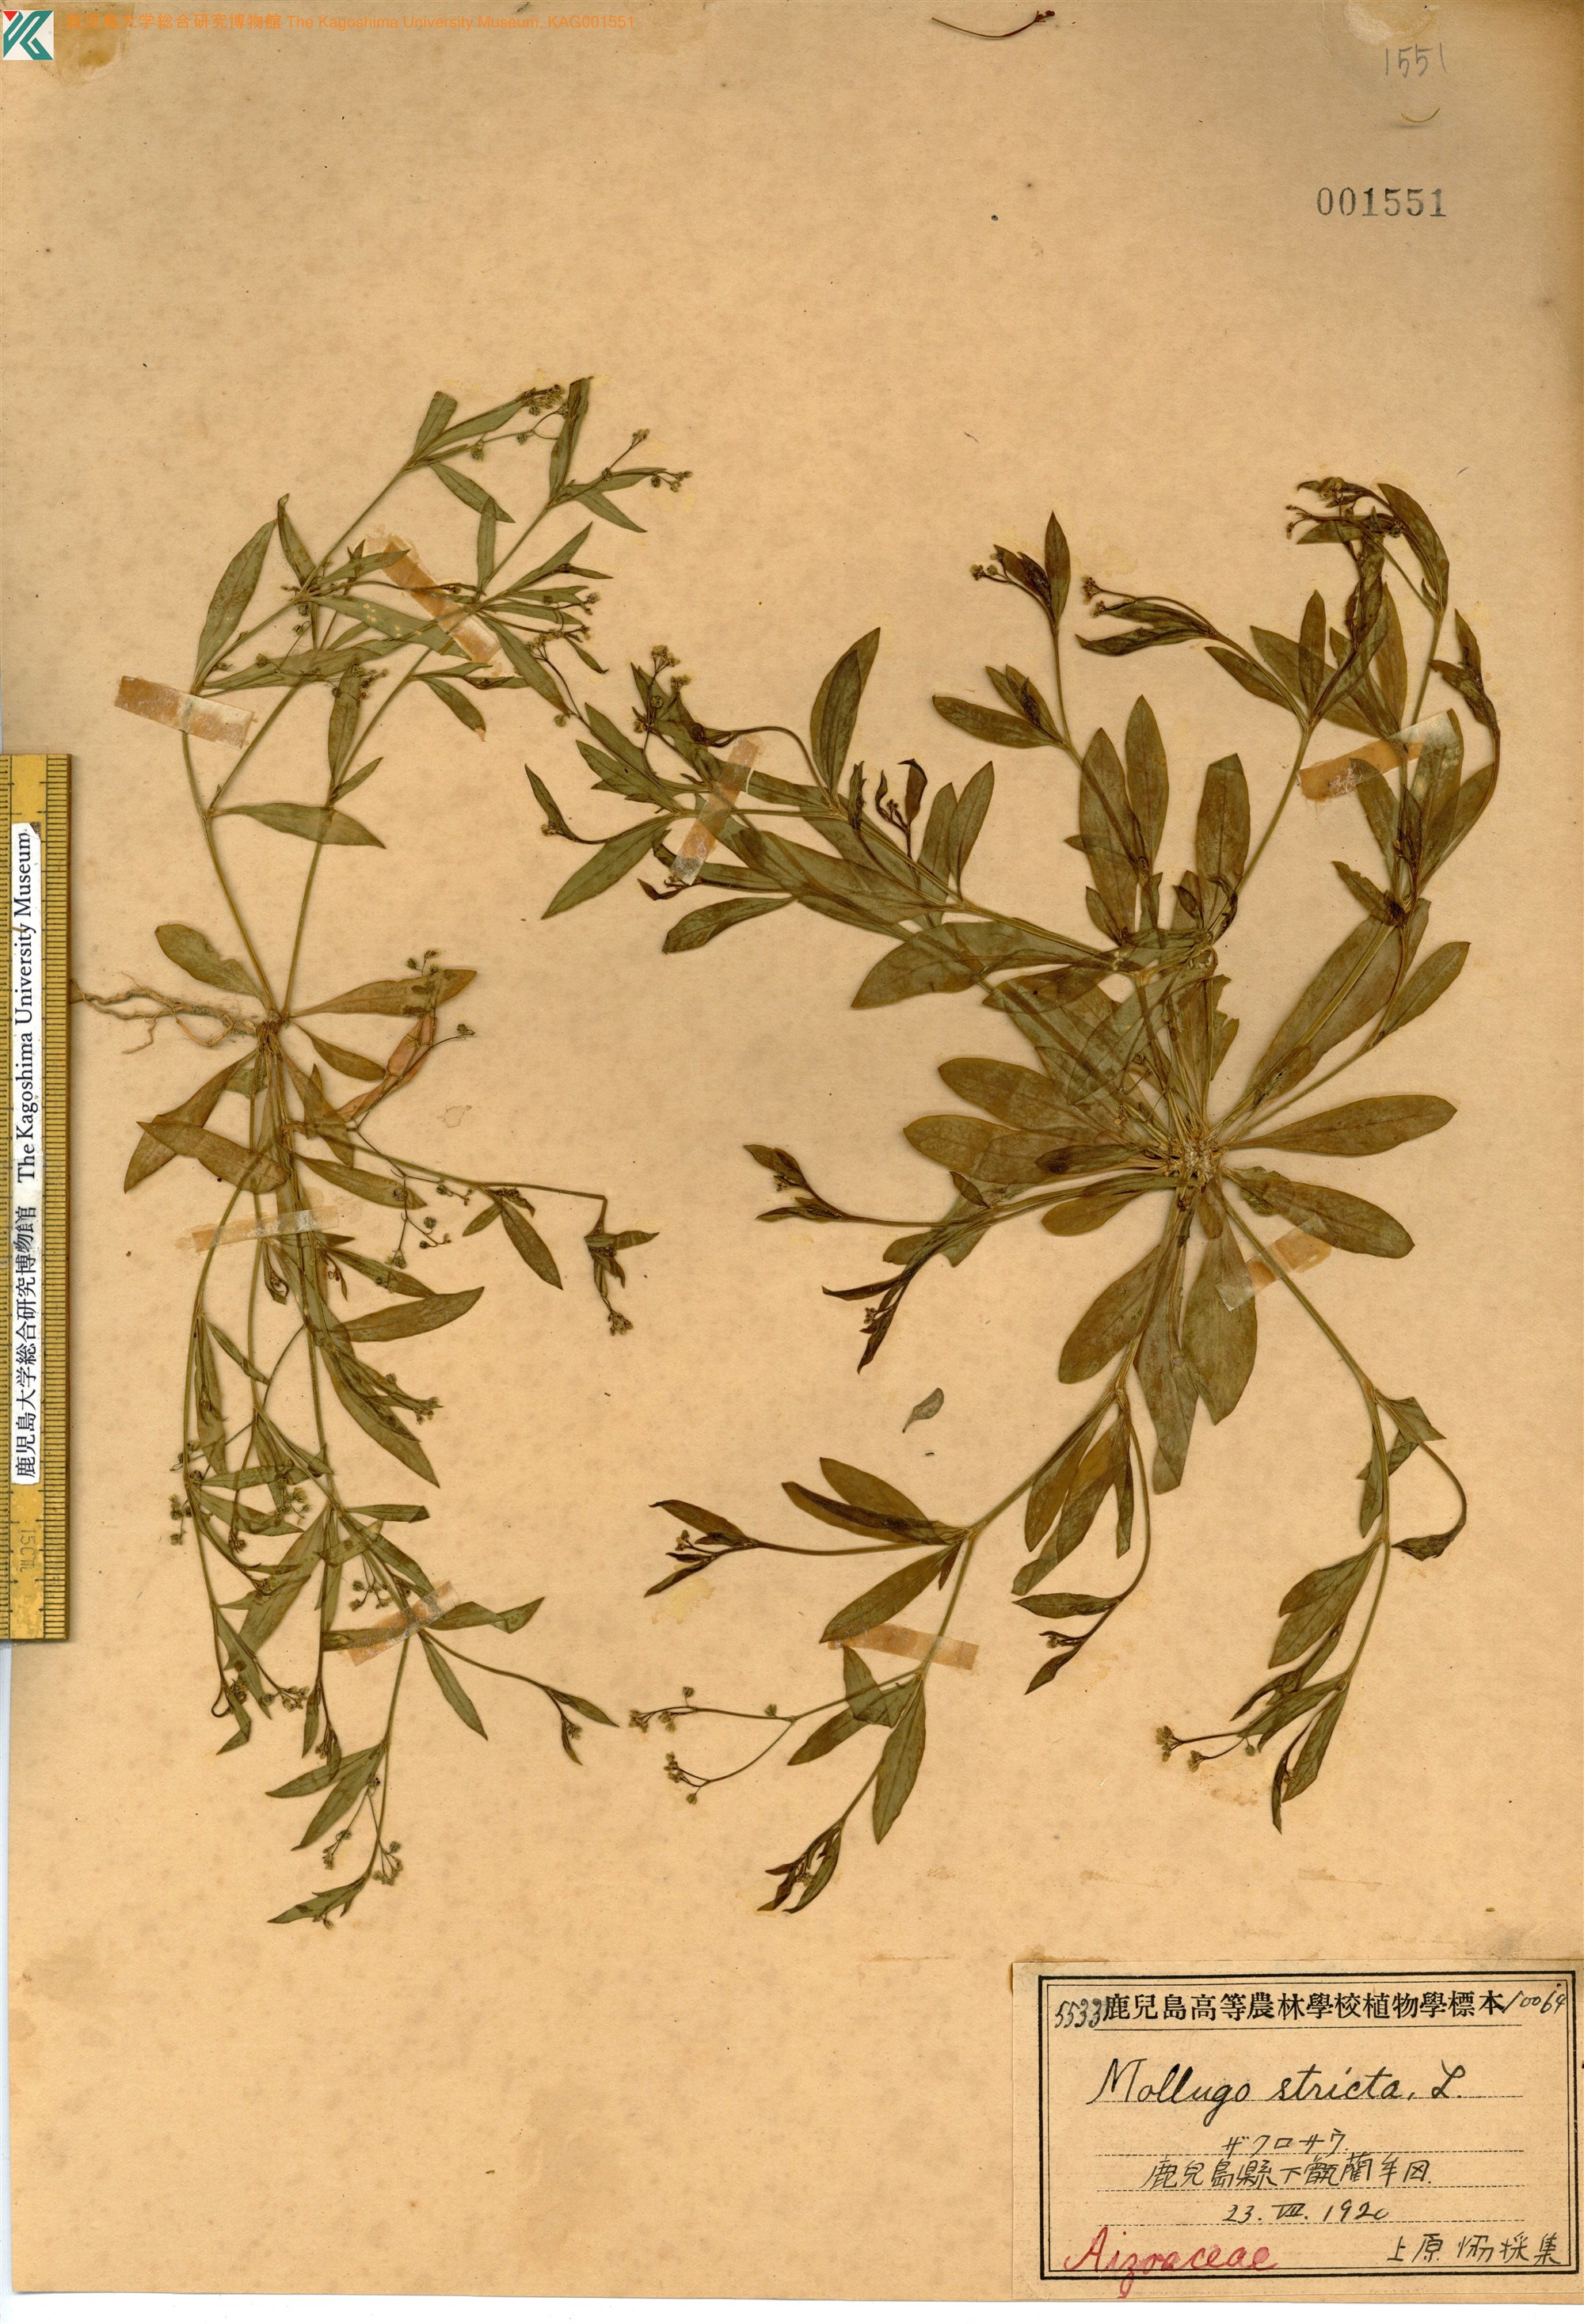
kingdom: Plantae
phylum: Tracheophyta
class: Magnoliopsida
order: Caryophyllales
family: Molluginaceae
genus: Trigastrotheca
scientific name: Trigastrotheca stricta
